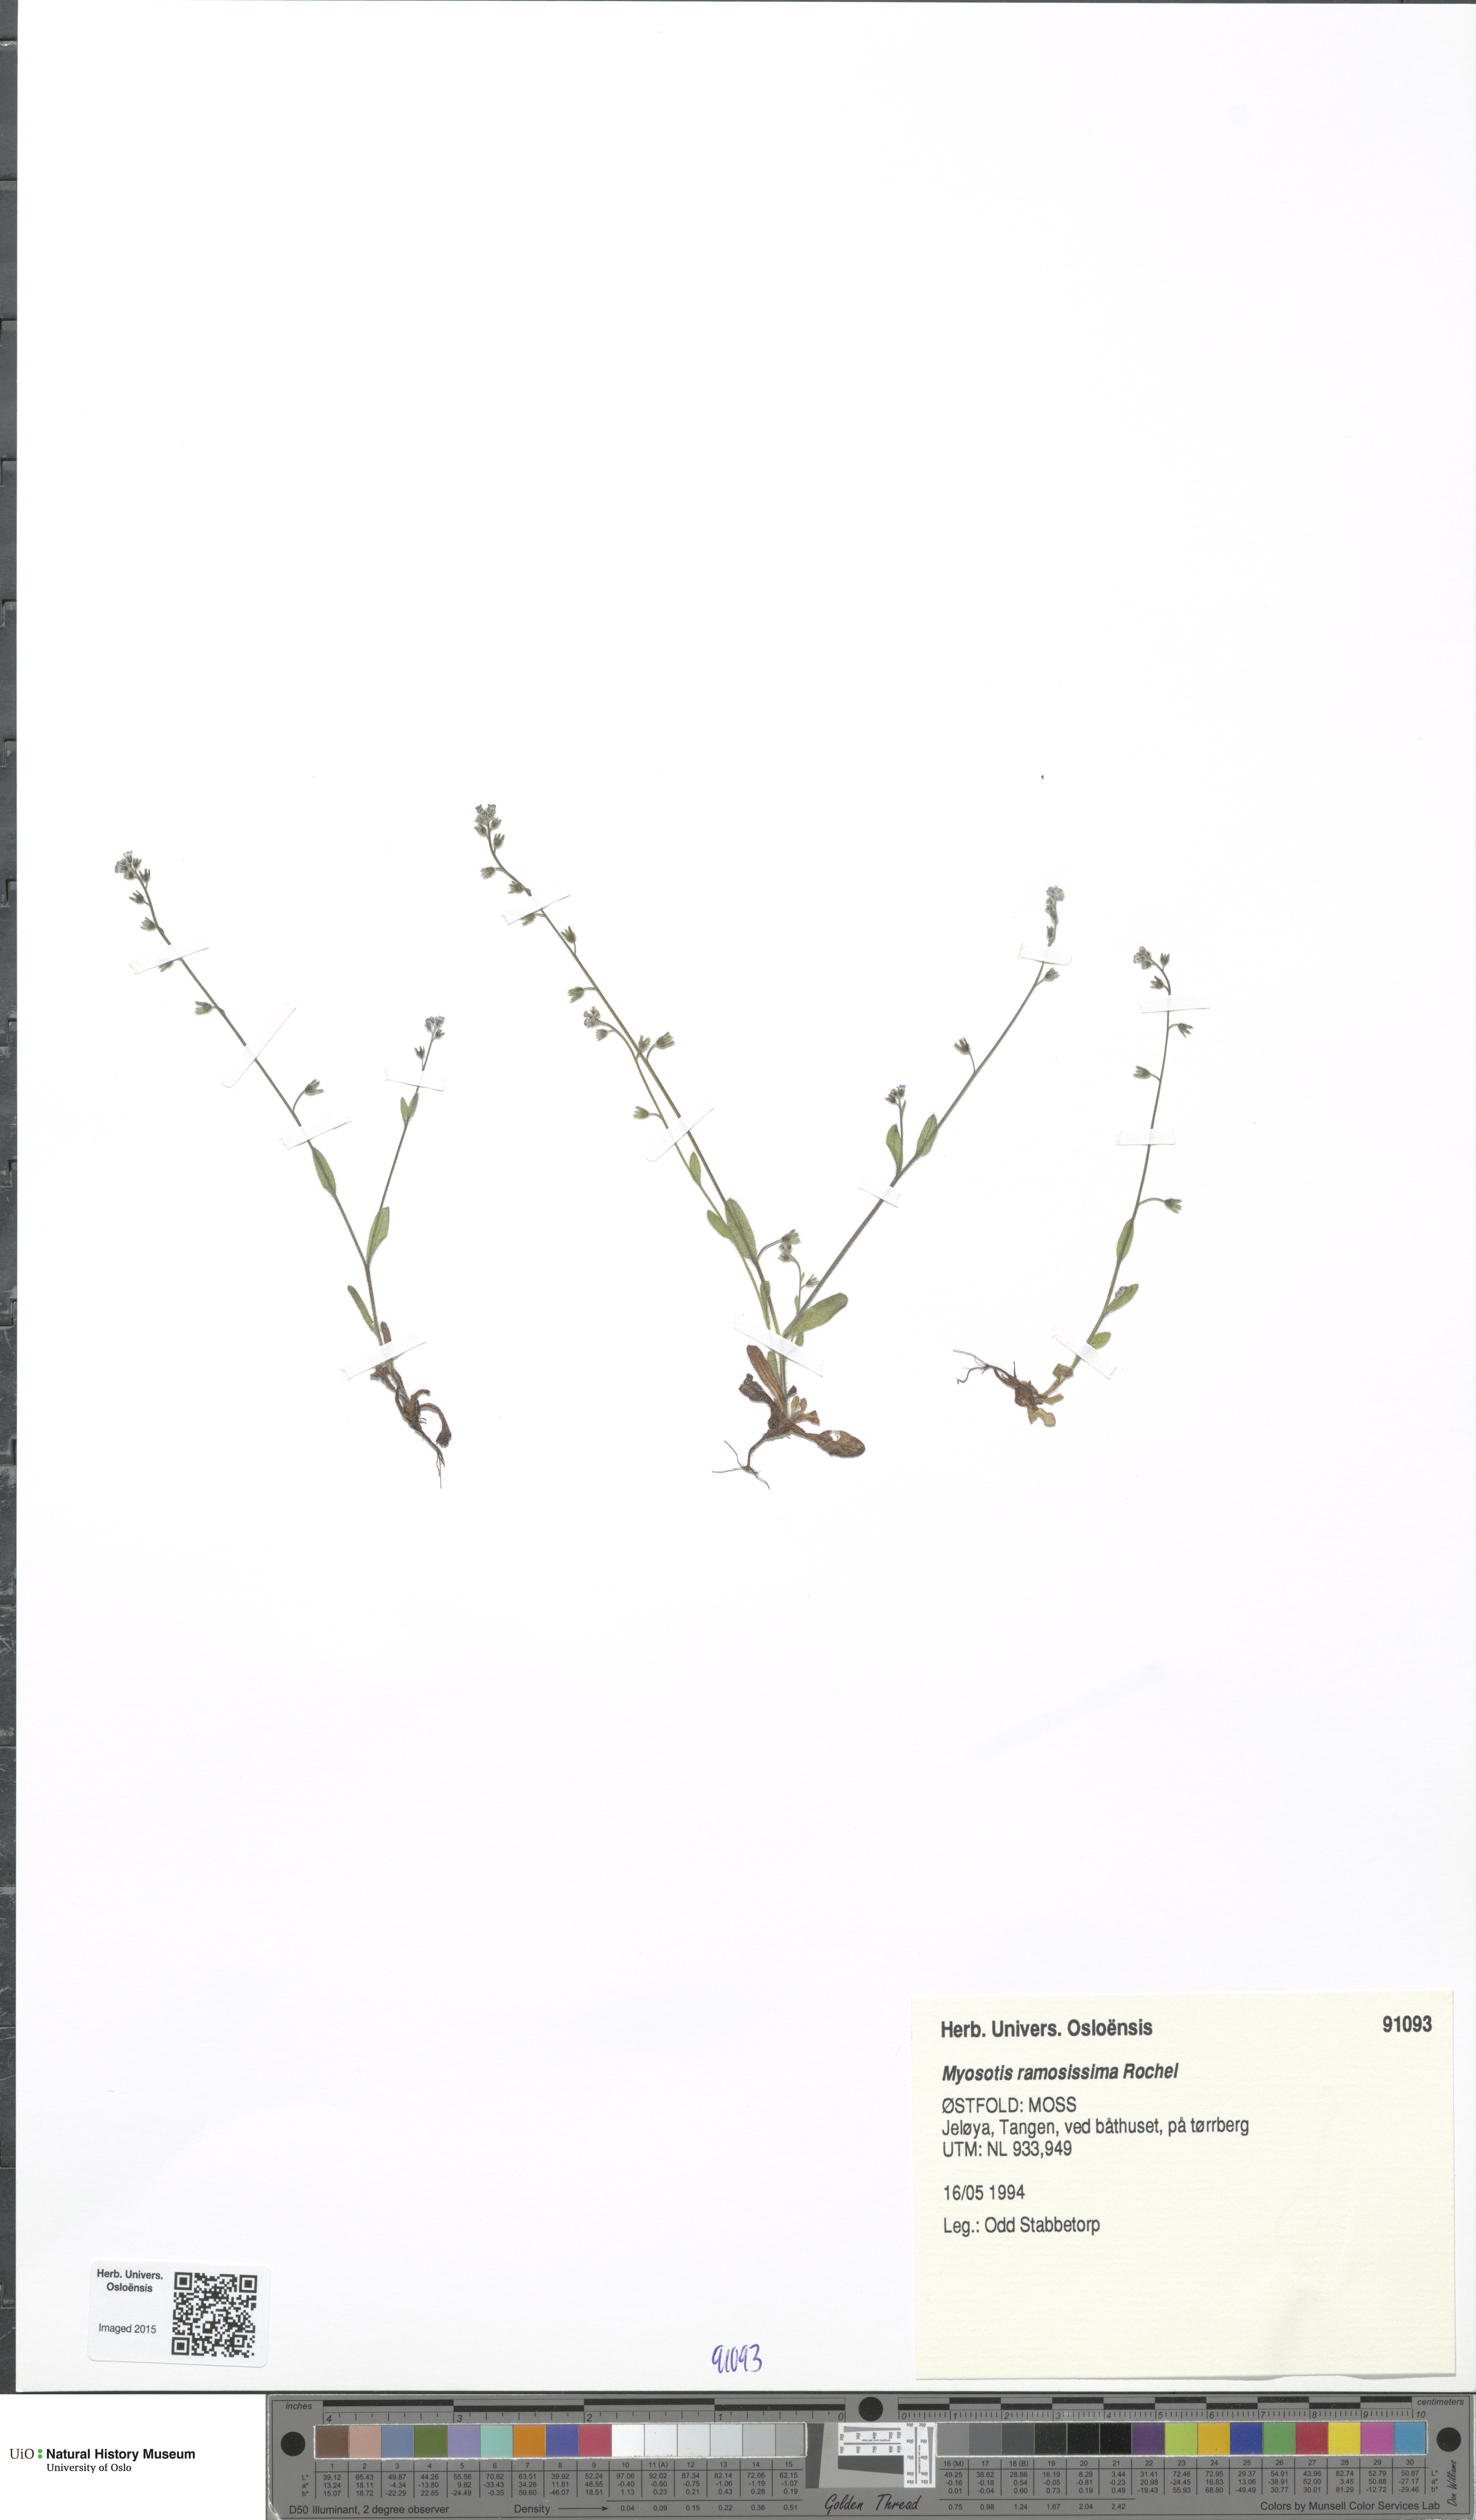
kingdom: Plantae
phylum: Tracheophyta
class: Magnoliopsida
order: Boraginales
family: Boraginaceae
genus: Myosotis
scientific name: Myosotis ramosissima
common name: Early forget-me-not
